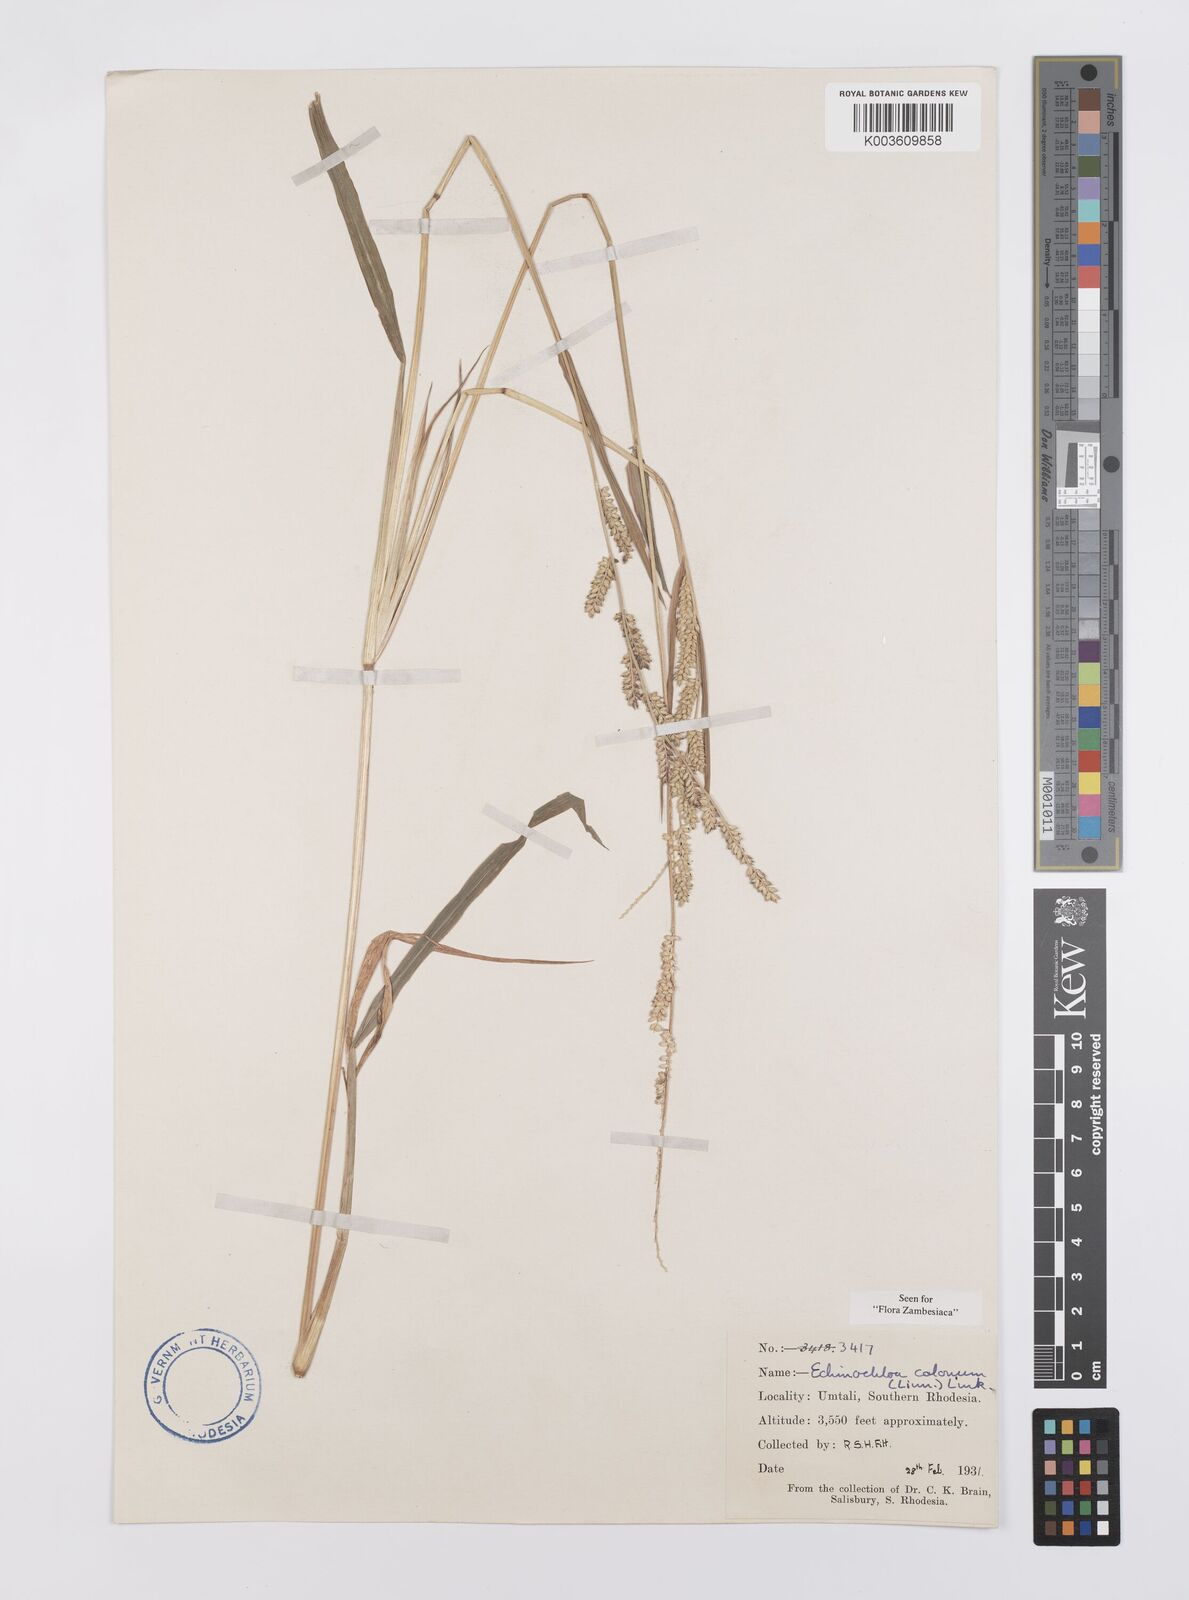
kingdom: Plantae
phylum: Tracheophyta
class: Liliopsida
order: Poales
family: Poaceae
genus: Echinochloa
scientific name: Echinochloa colonum
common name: Jungle rice
